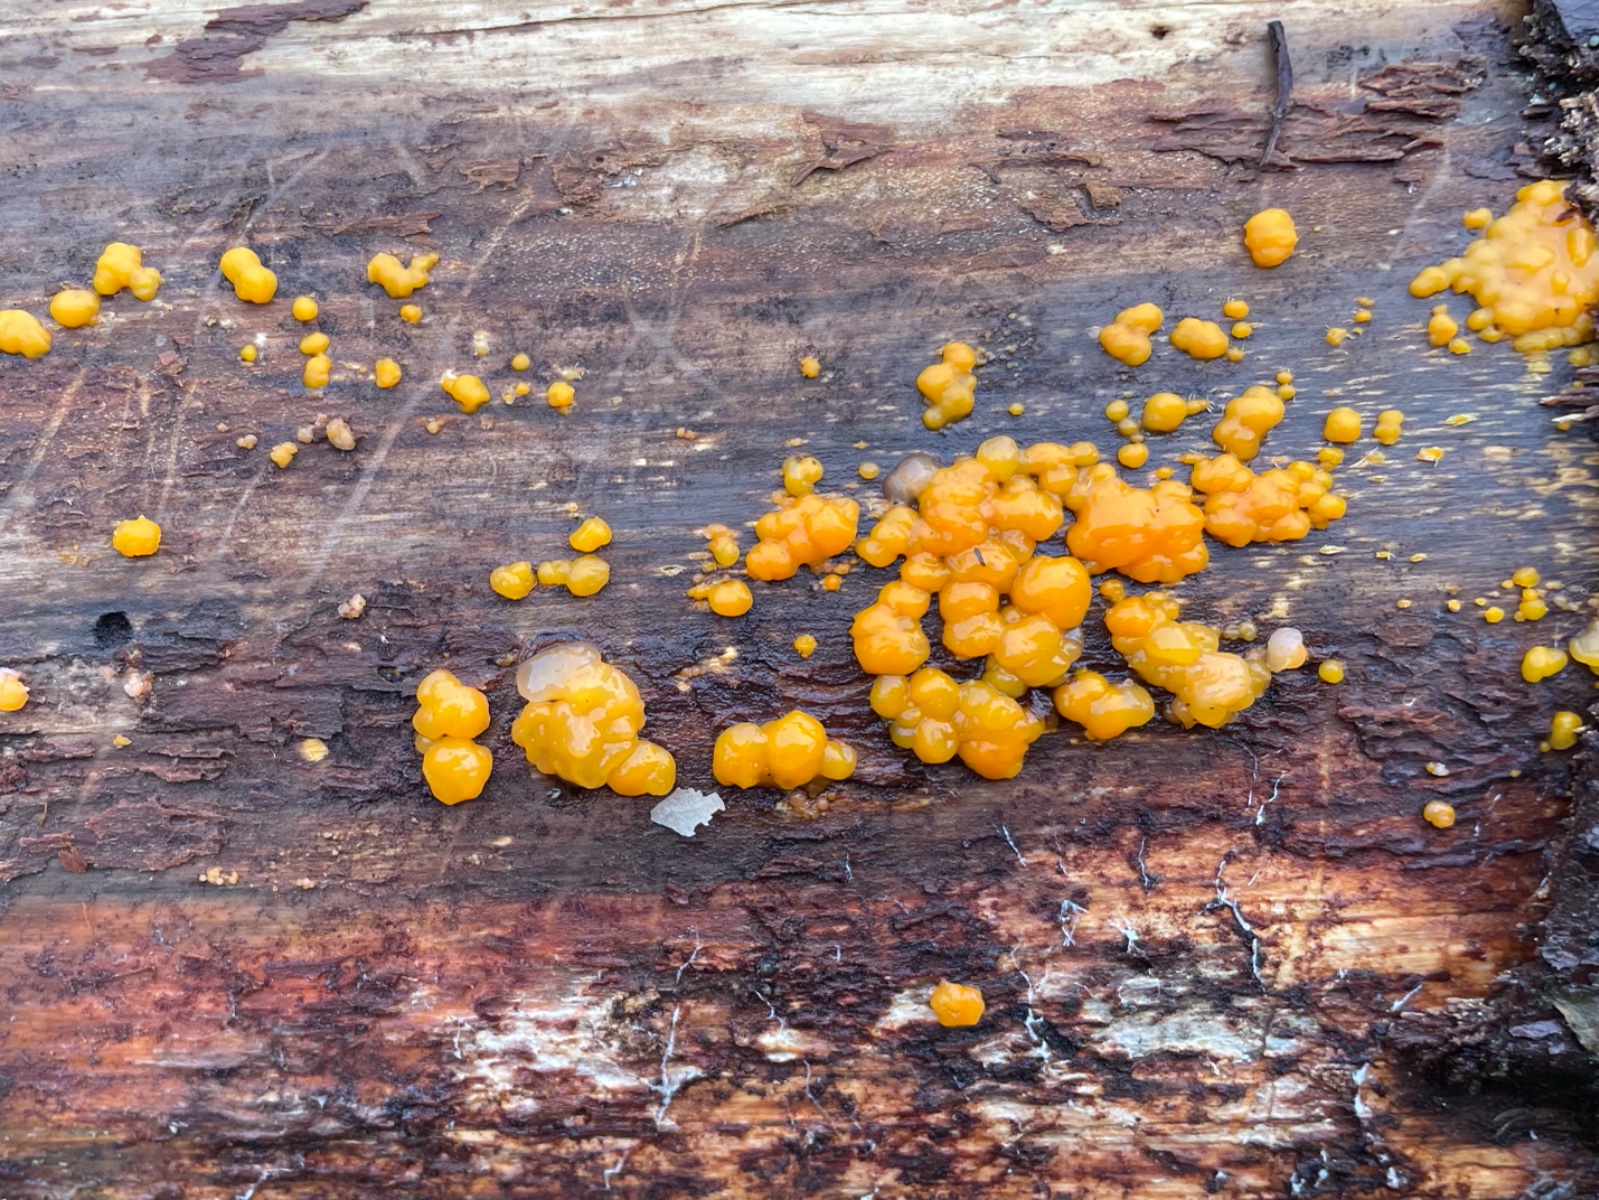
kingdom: Fungi
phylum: Basidiomycota
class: Dacrymycetes
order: Dacrymycetales
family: Dacrymycetaceae
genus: Dacrymyces
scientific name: Dacrymyces stillatus
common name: almindelig tåresvamp
